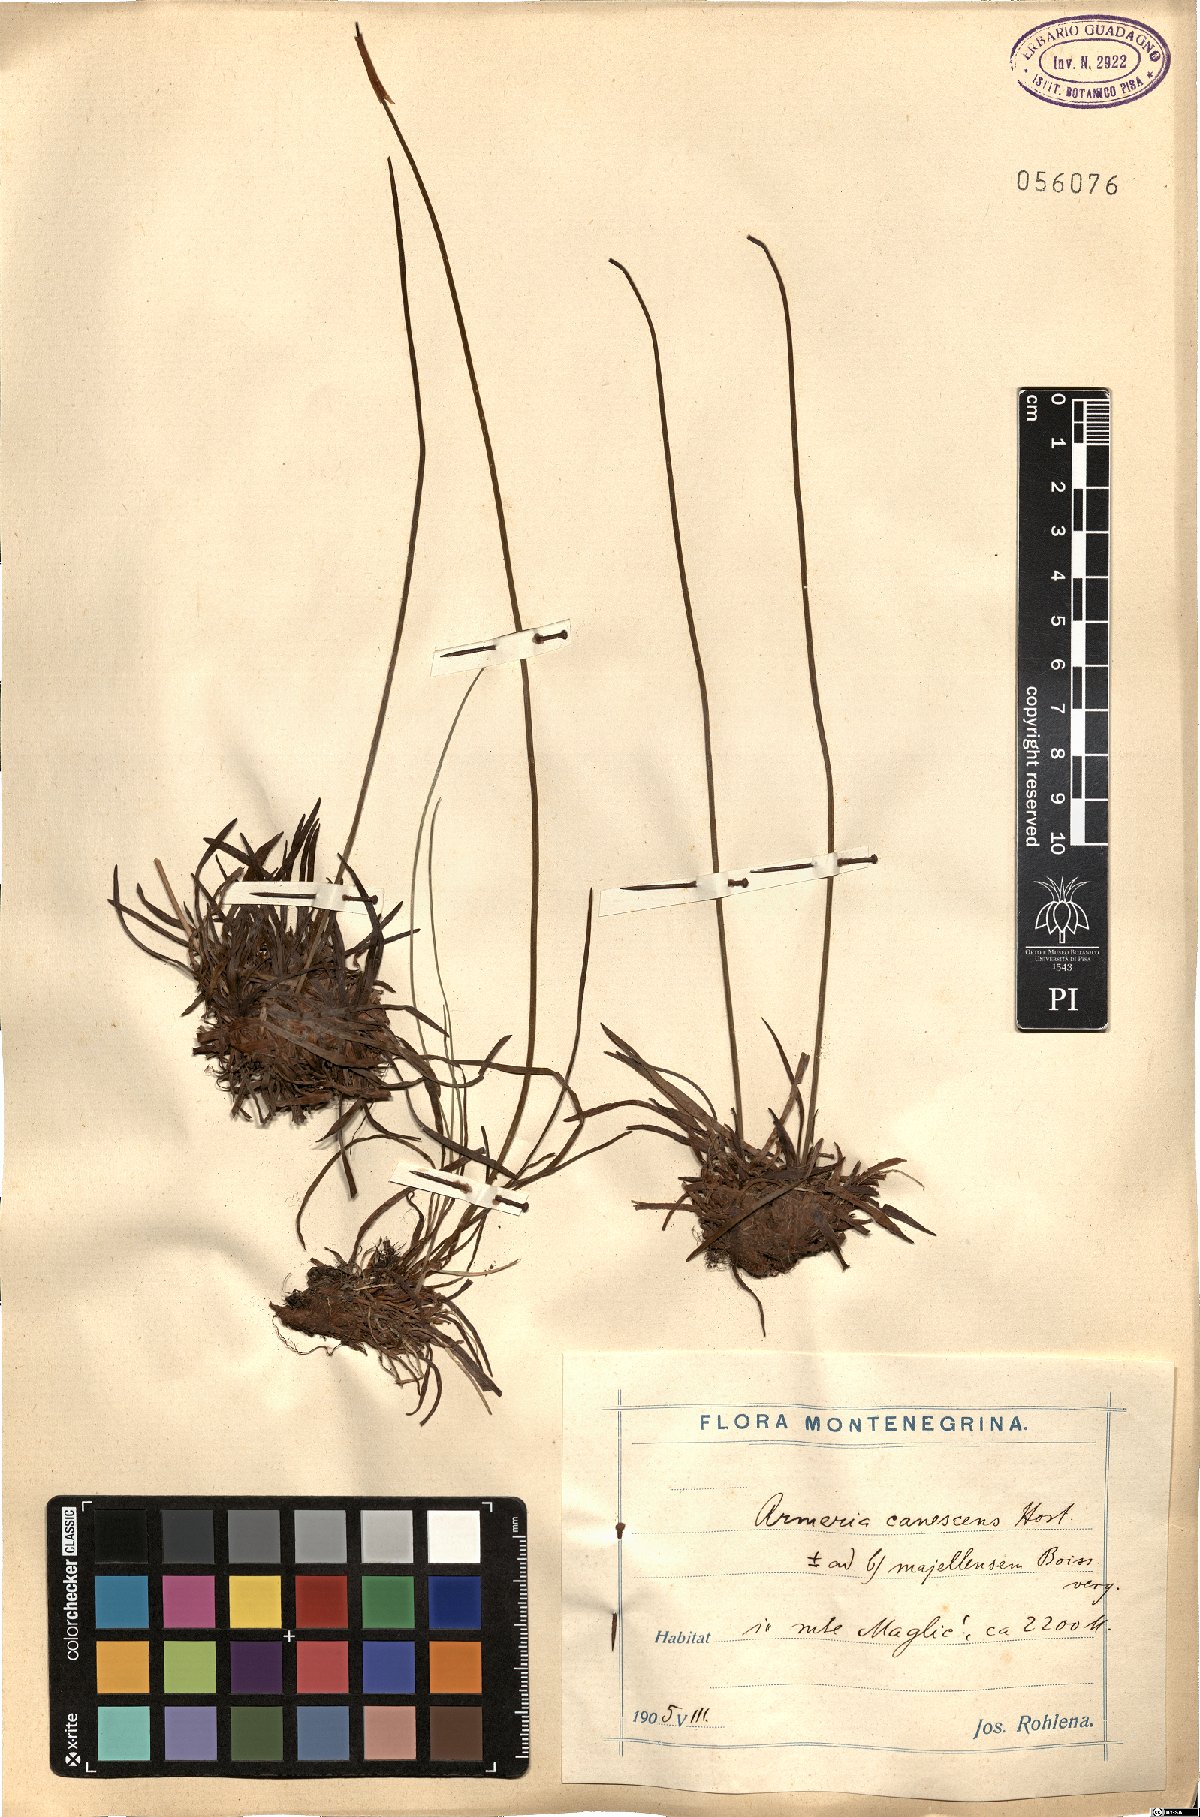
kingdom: Plantae
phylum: Tracheophyta
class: Magnoliopsida
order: Caryophyllales
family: Plumbaginaceae
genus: Armeria
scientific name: Armeria canescens
